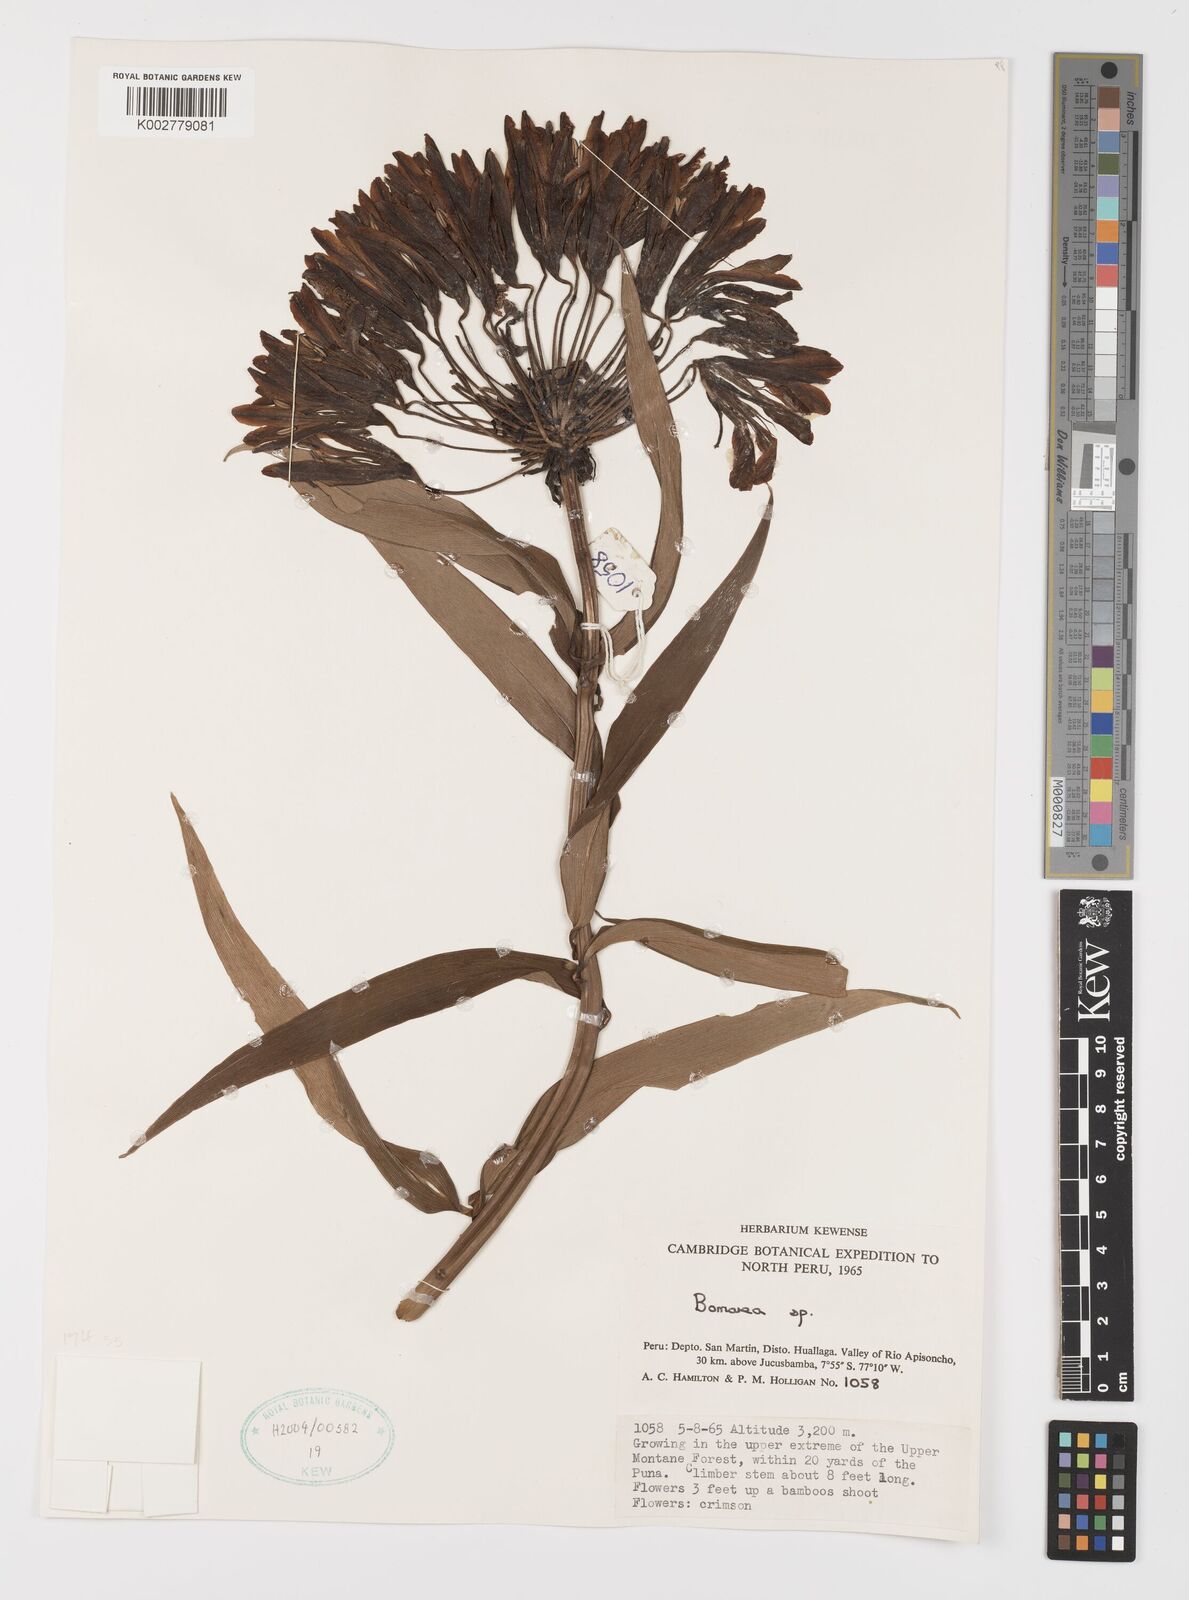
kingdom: Plantae
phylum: Tracheophyta
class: Liliopsida
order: Liliales
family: Alstroemeriaceae
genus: Bomarea
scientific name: Bomarea
